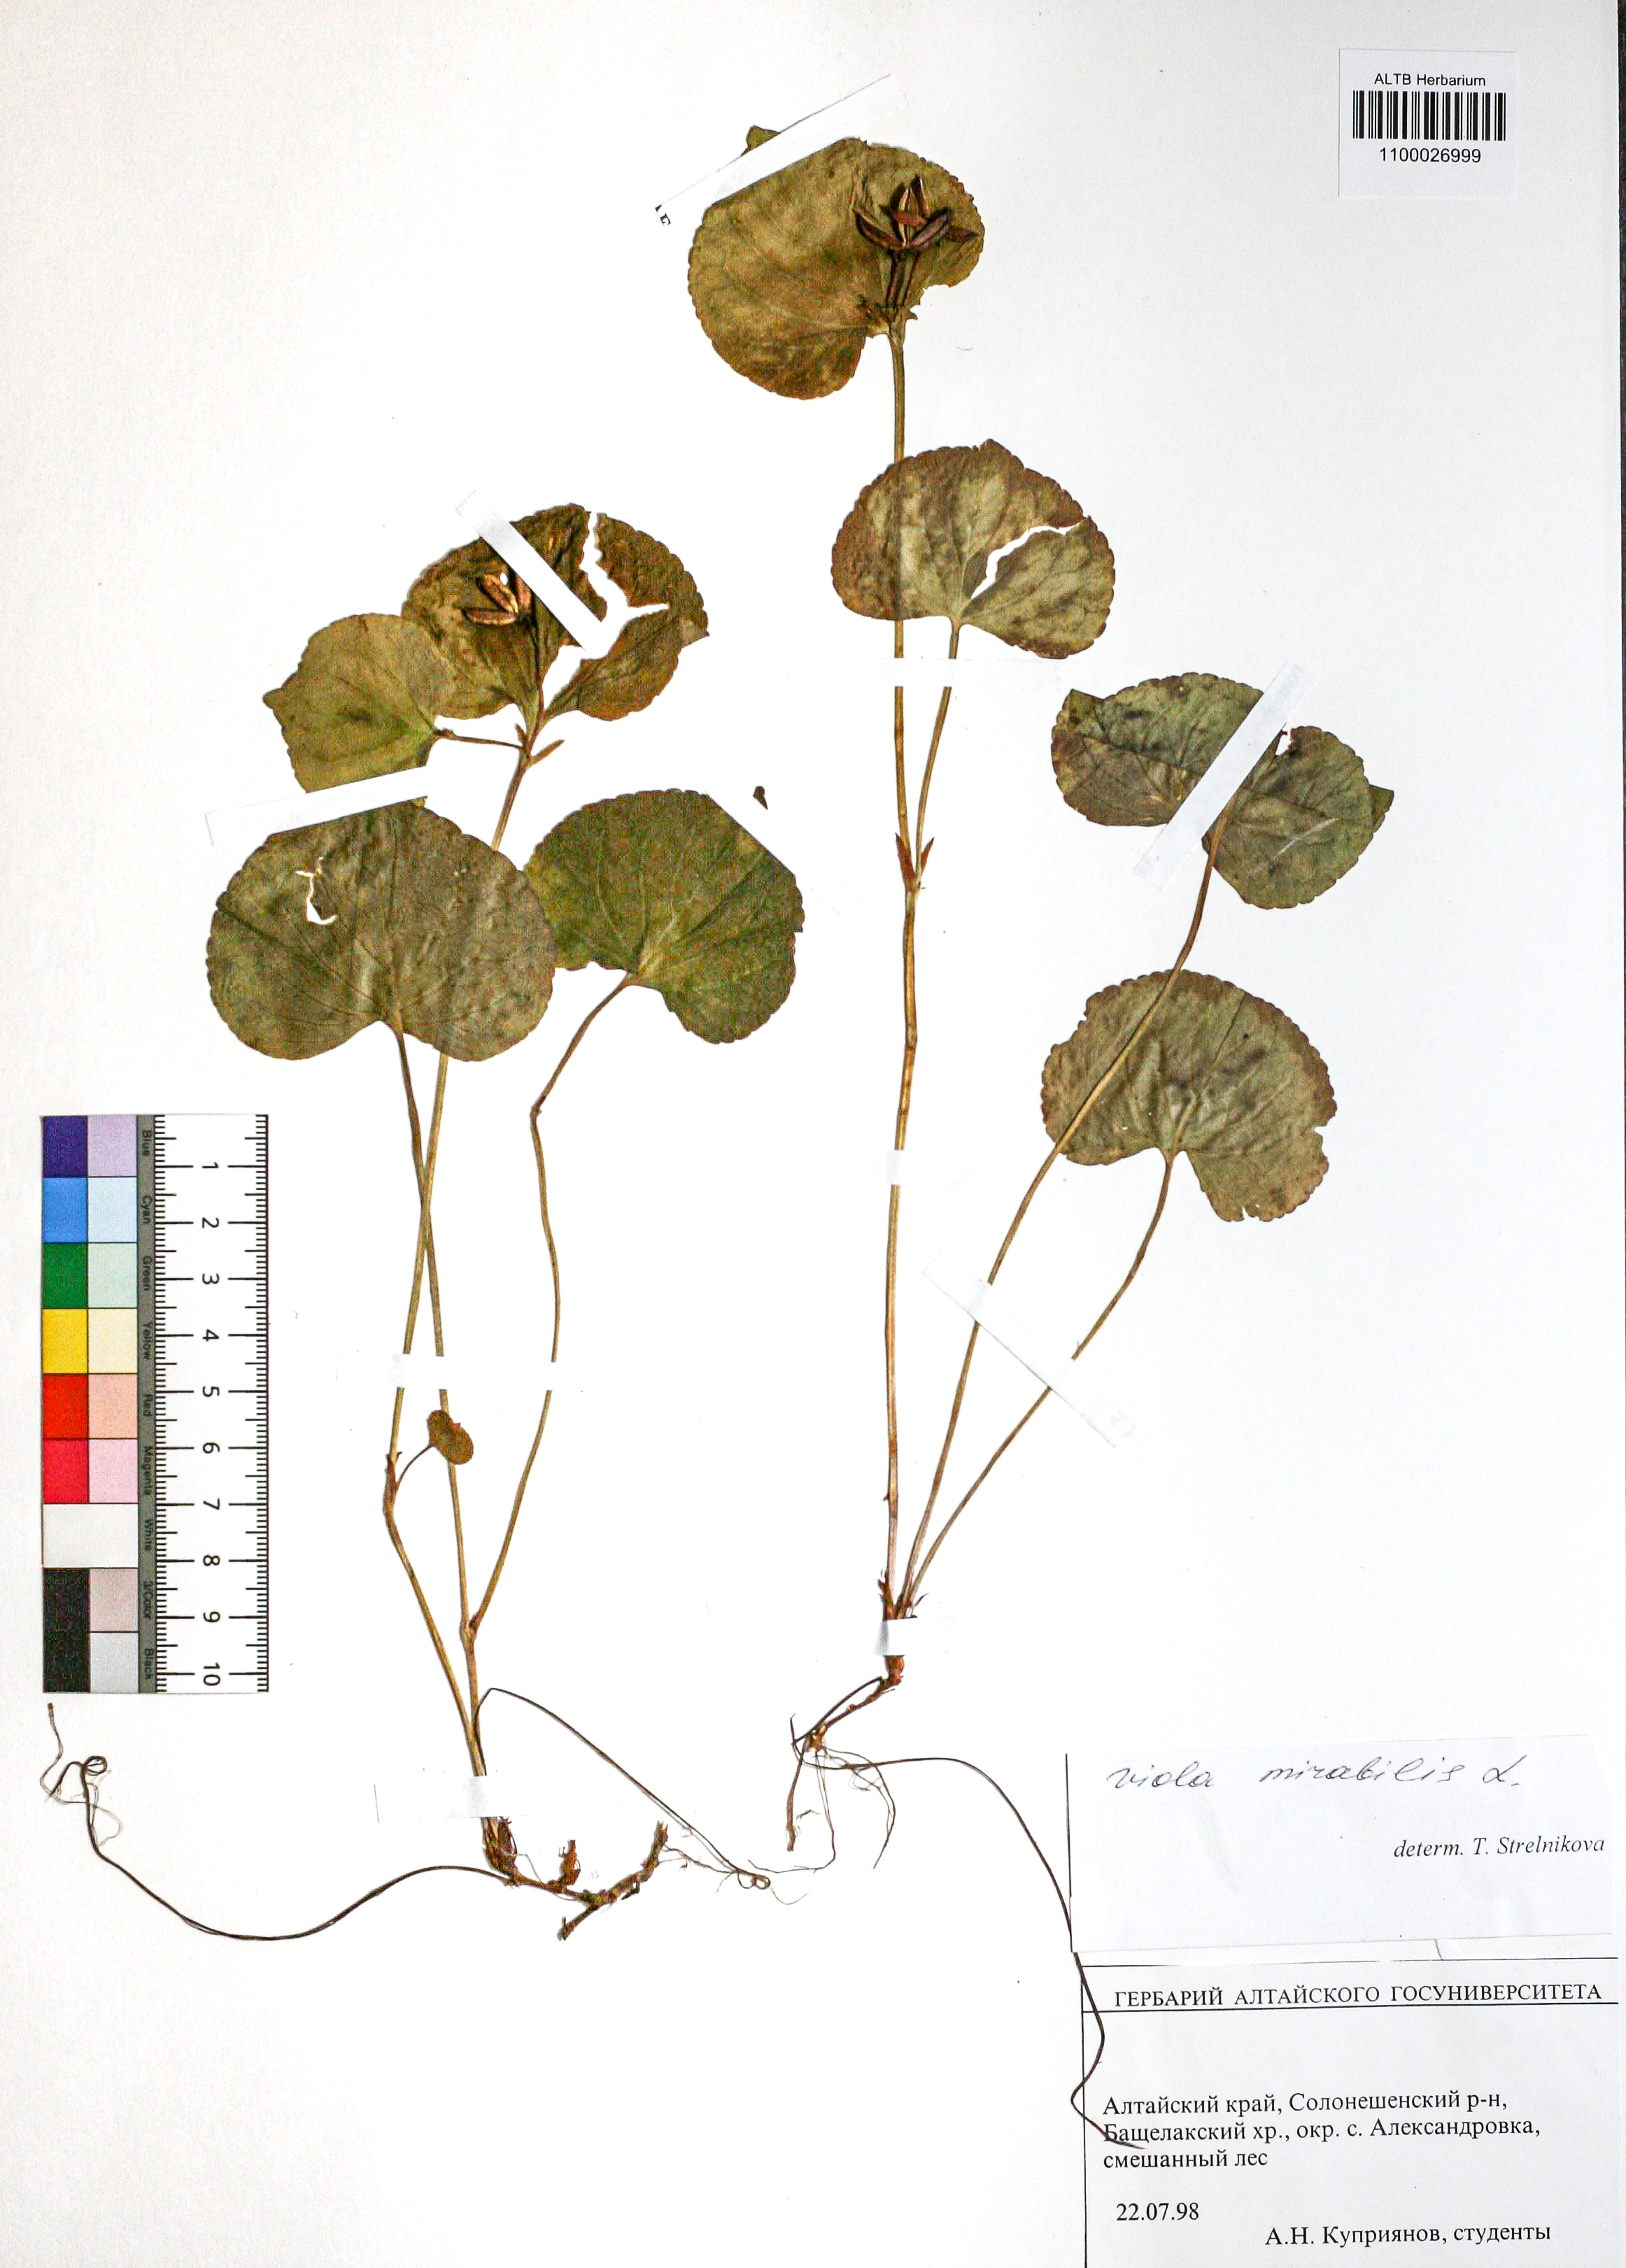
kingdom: Plantae
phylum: Tracheophyta
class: Magnoliopsida
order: Malpighiales
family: Violaceae
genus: Viola
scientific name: Viola mirabilis
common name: Wonder violet
